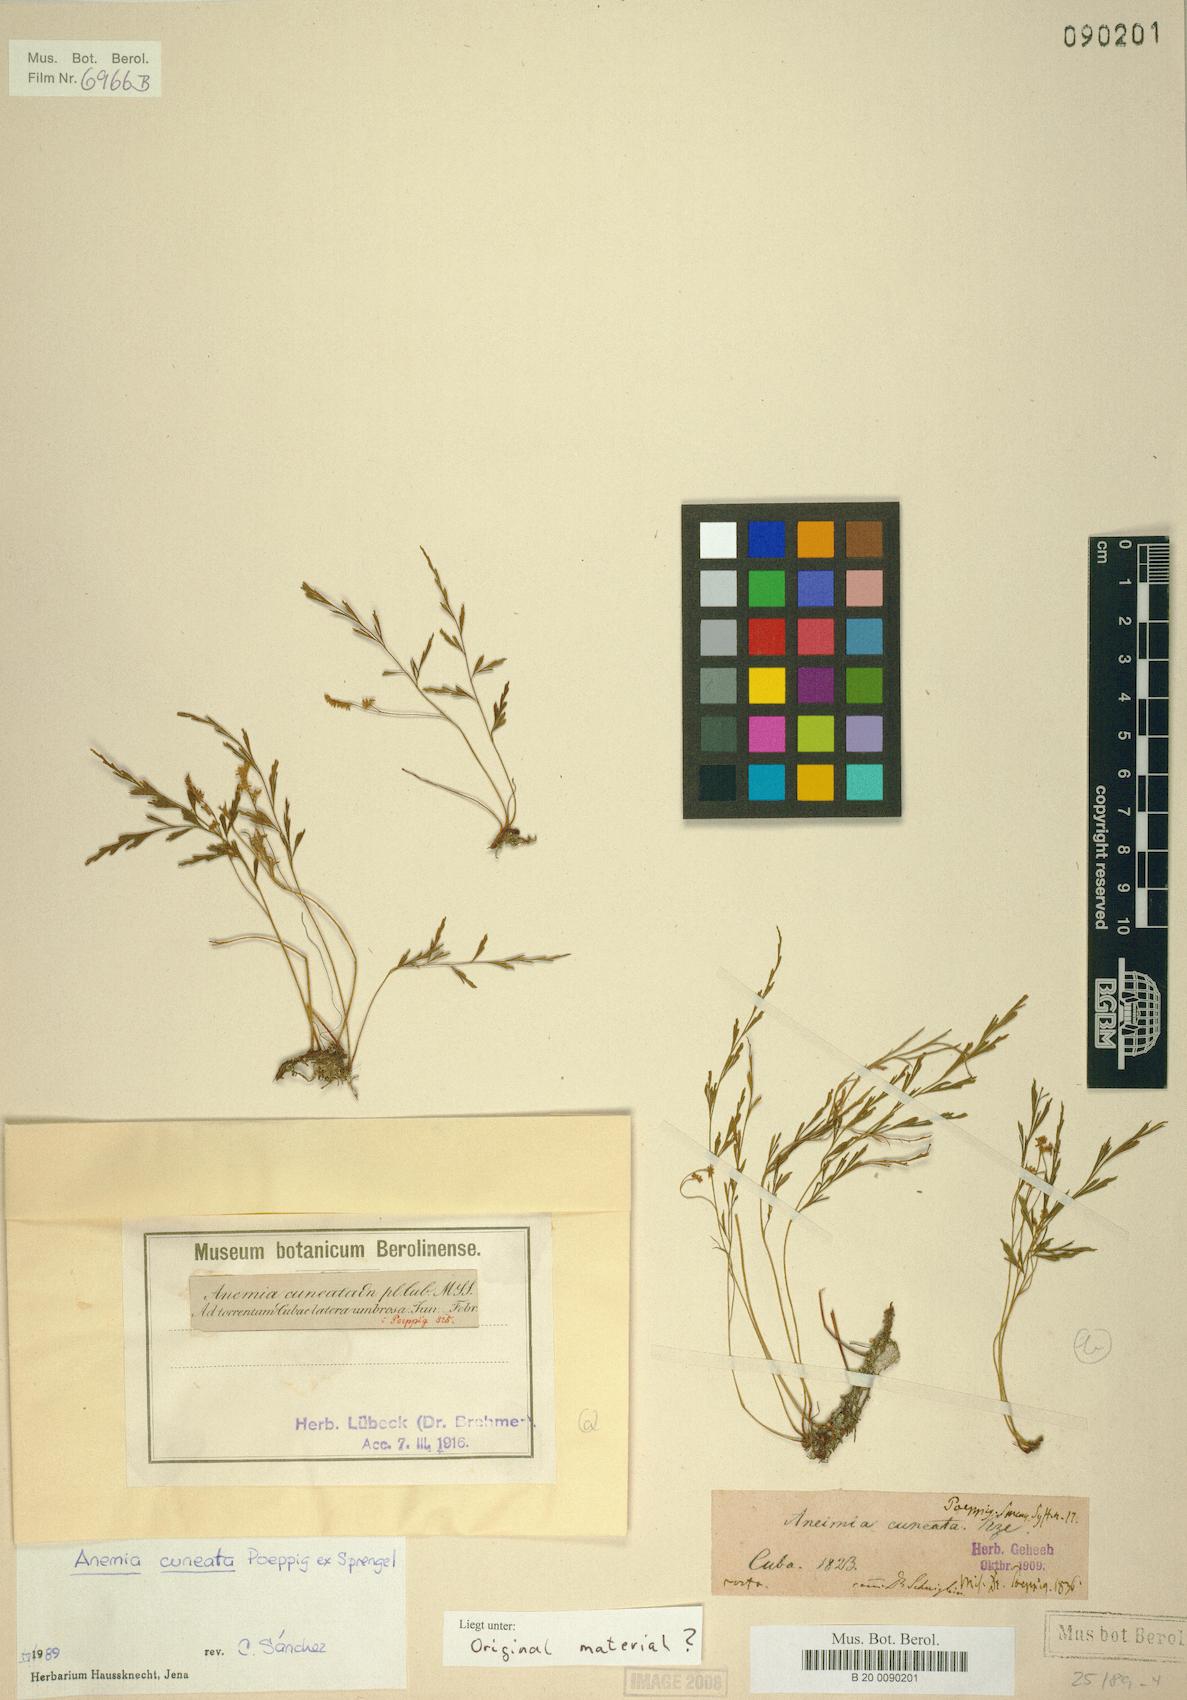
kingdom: Plantae
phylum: Tracheophyta
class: Polypodiopsida
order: Schizaeales
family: Anemiaceae
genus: Anemia
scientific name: Anemia cuneata
